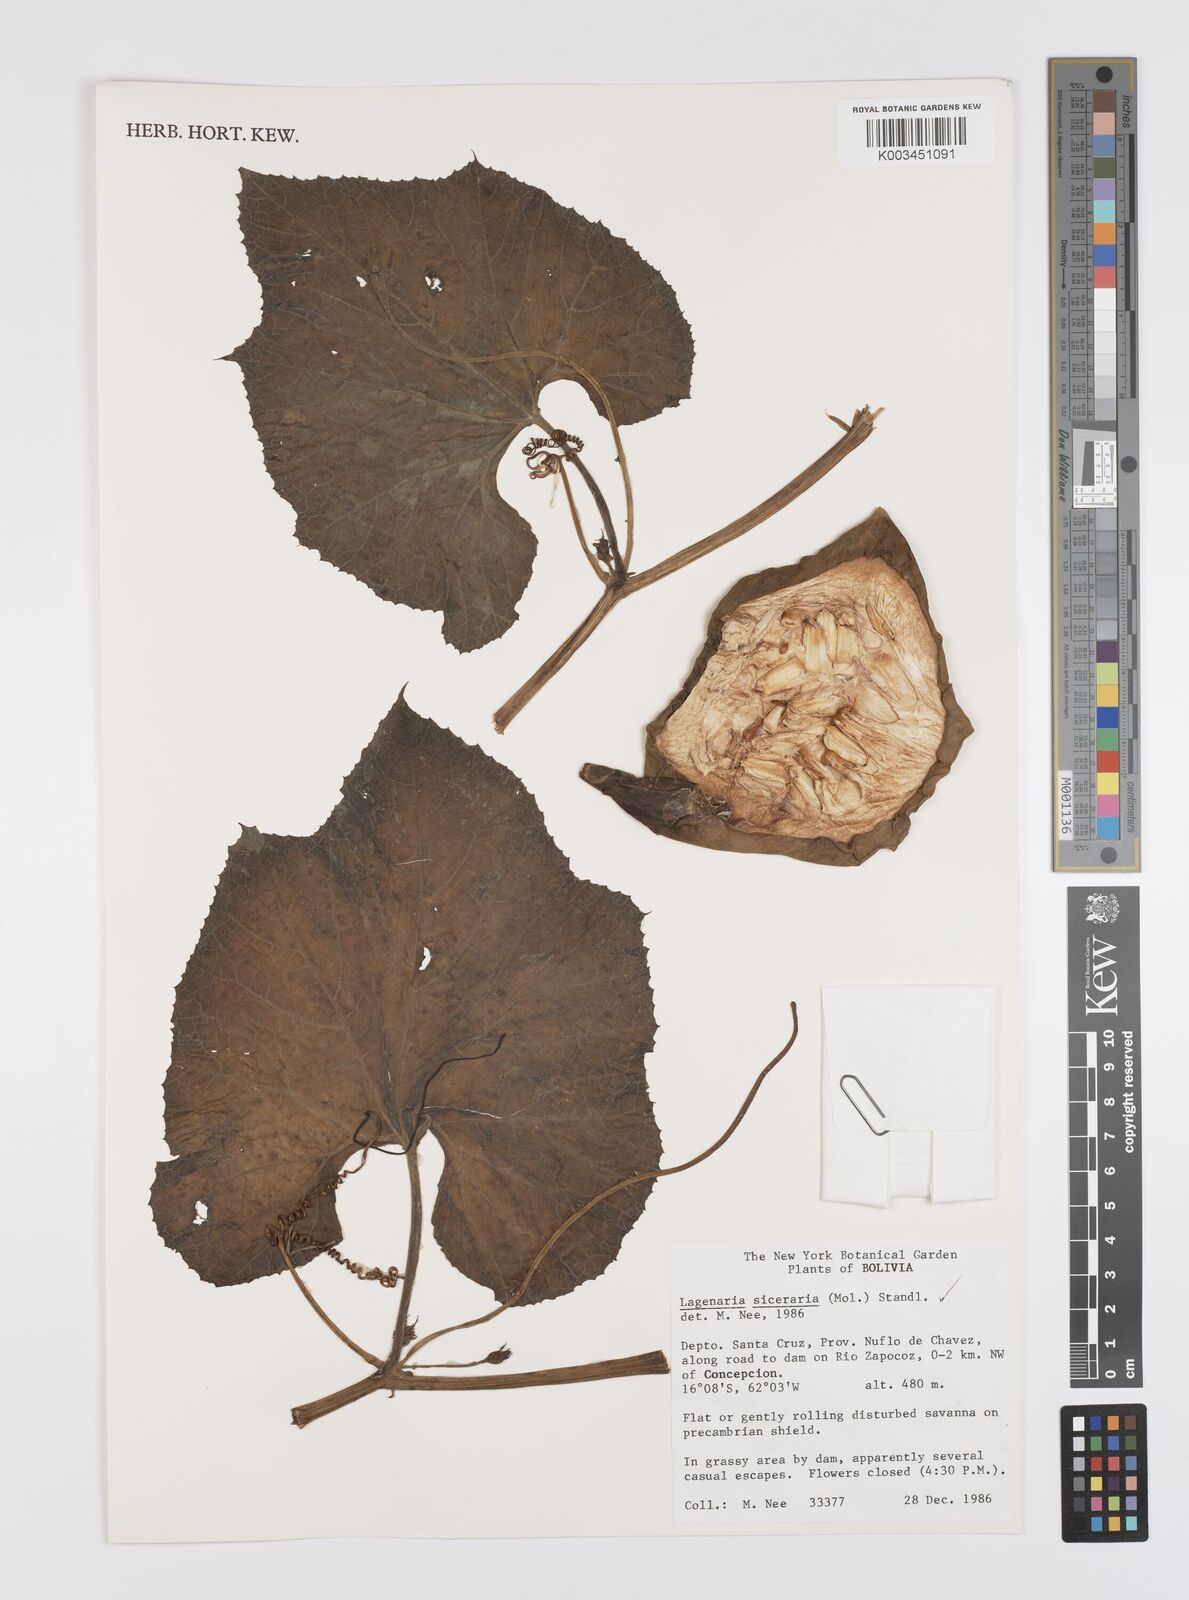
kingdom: Plantae
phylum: Tracheophyta
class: Magnoliopsida
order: Cucurbitales
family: Cucurbitaceae
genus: Lagenaria
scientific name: Lagenaria siceraria
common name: Bottle gourd
